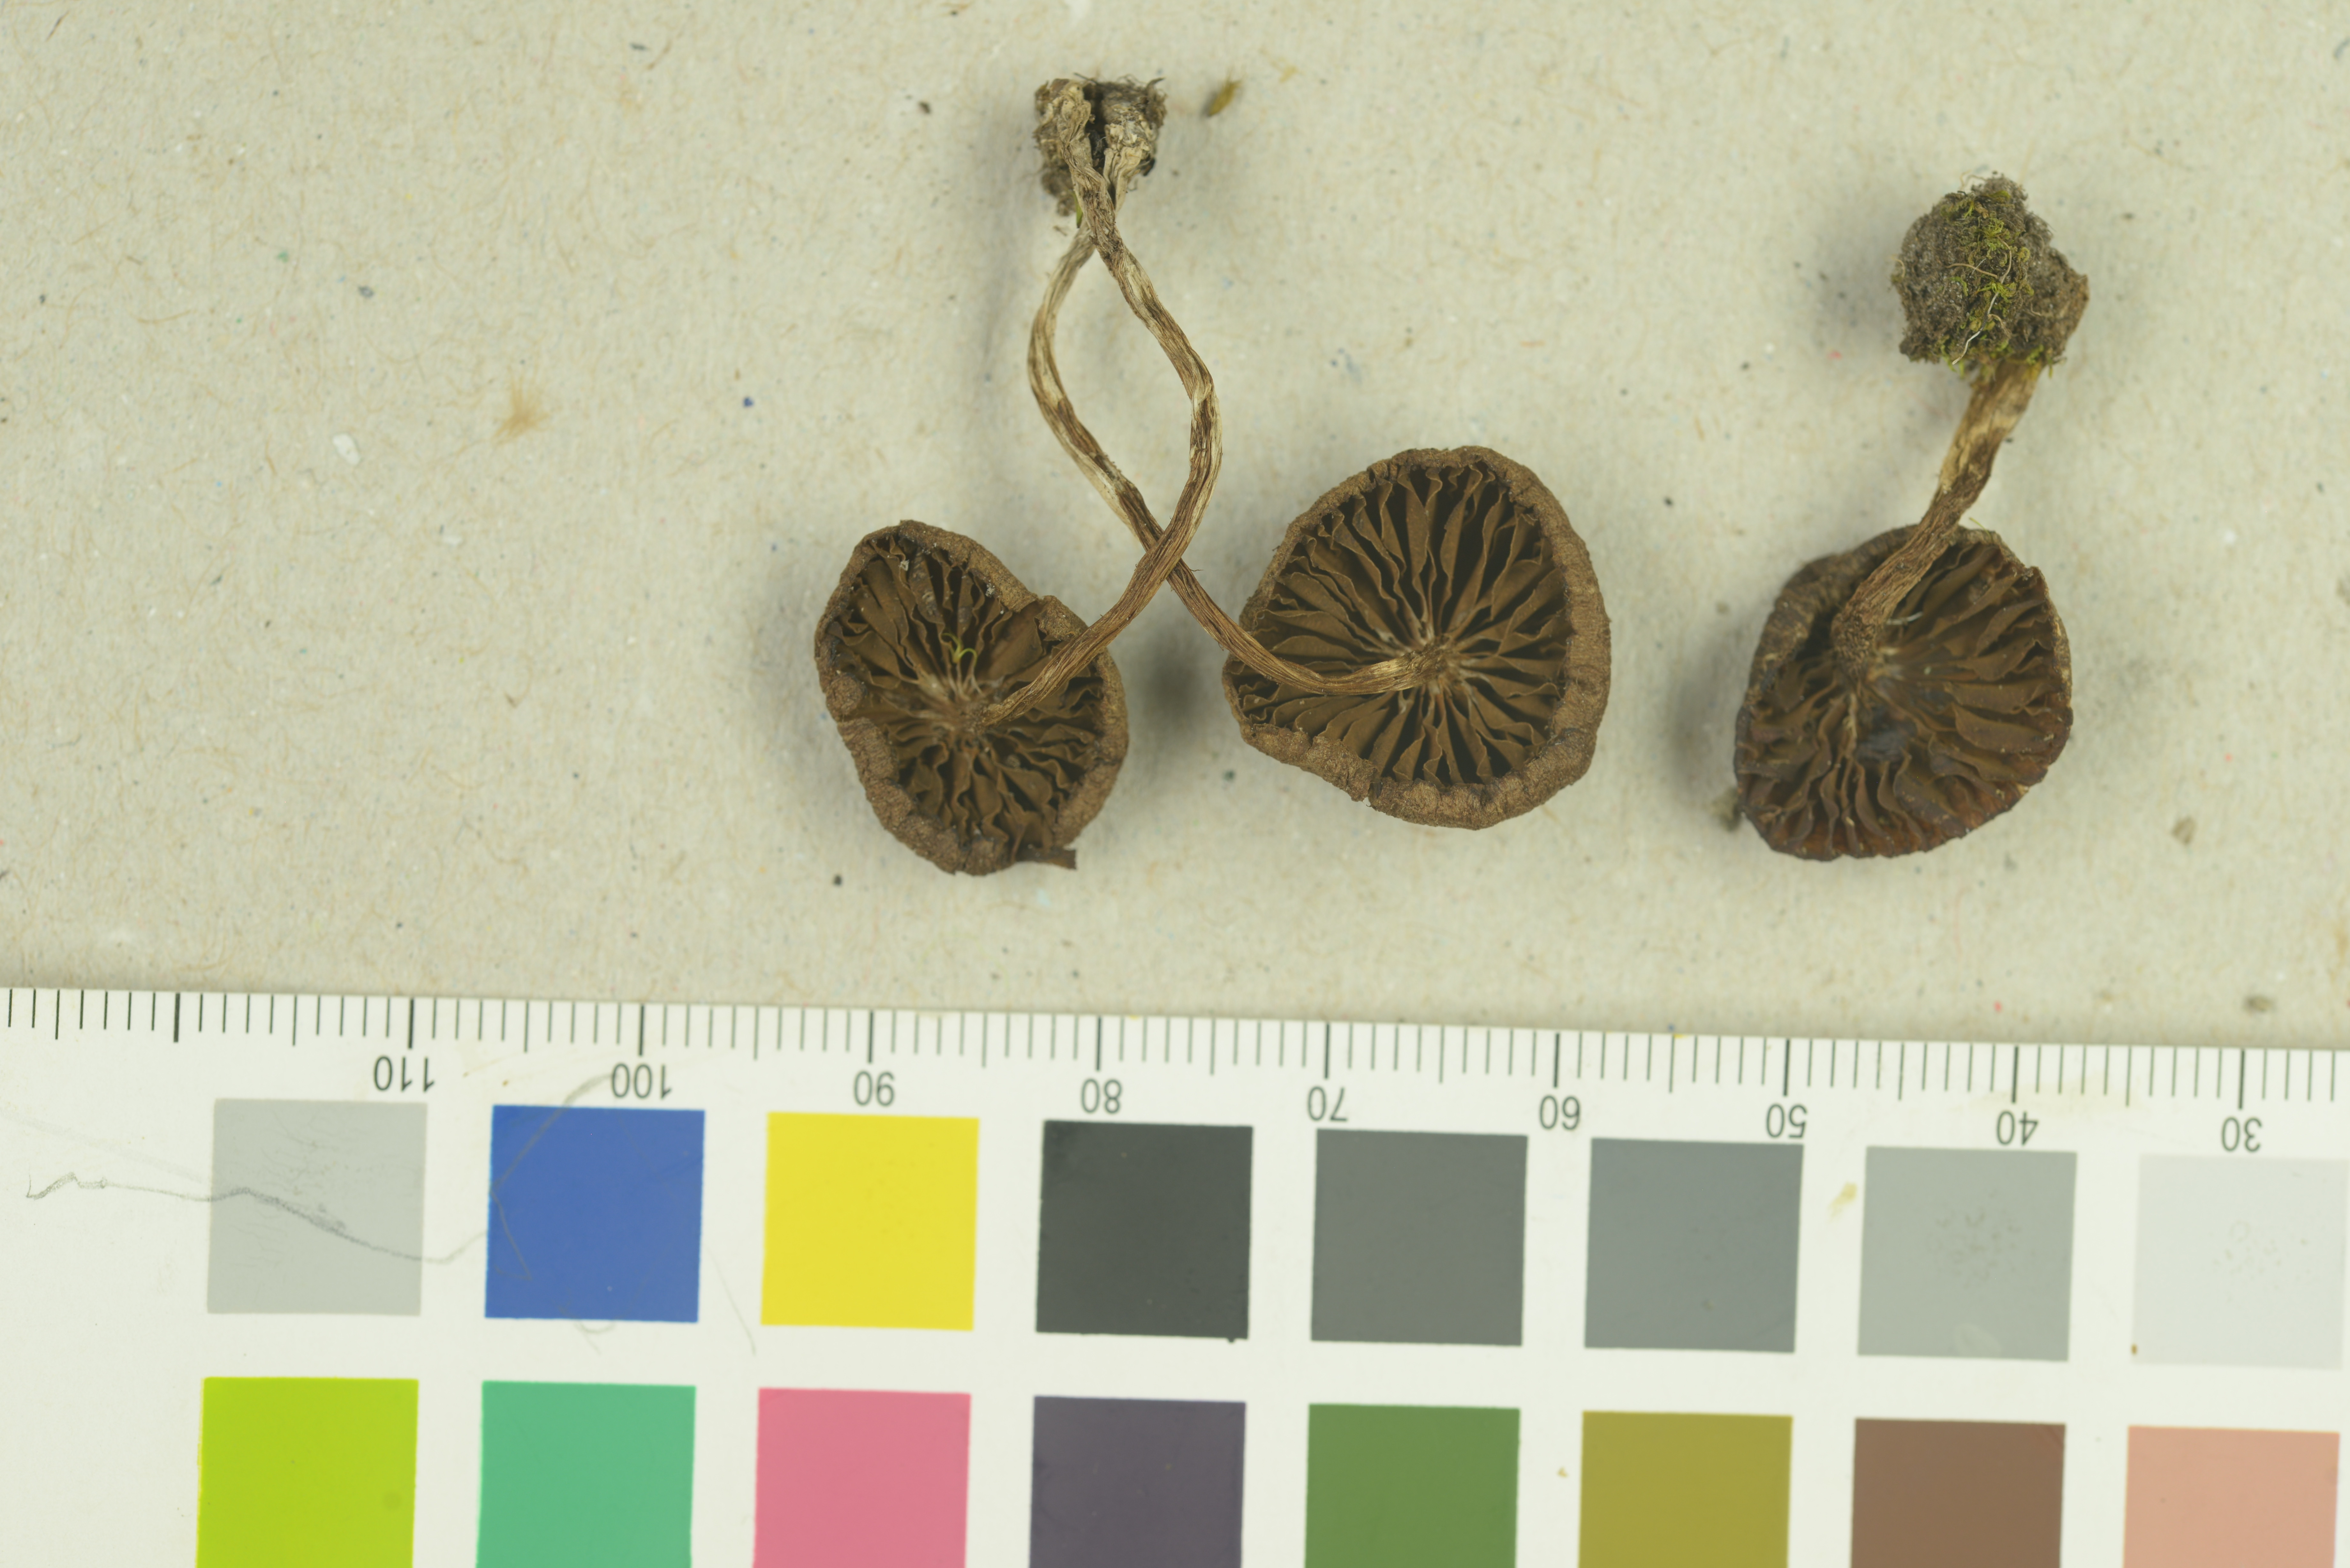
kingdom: Fungi
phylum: Basidiomycota
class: Agaricomycetes
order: Agaricales
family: Cortinariaceae
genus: Cortinarius
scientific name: Cortinarius
